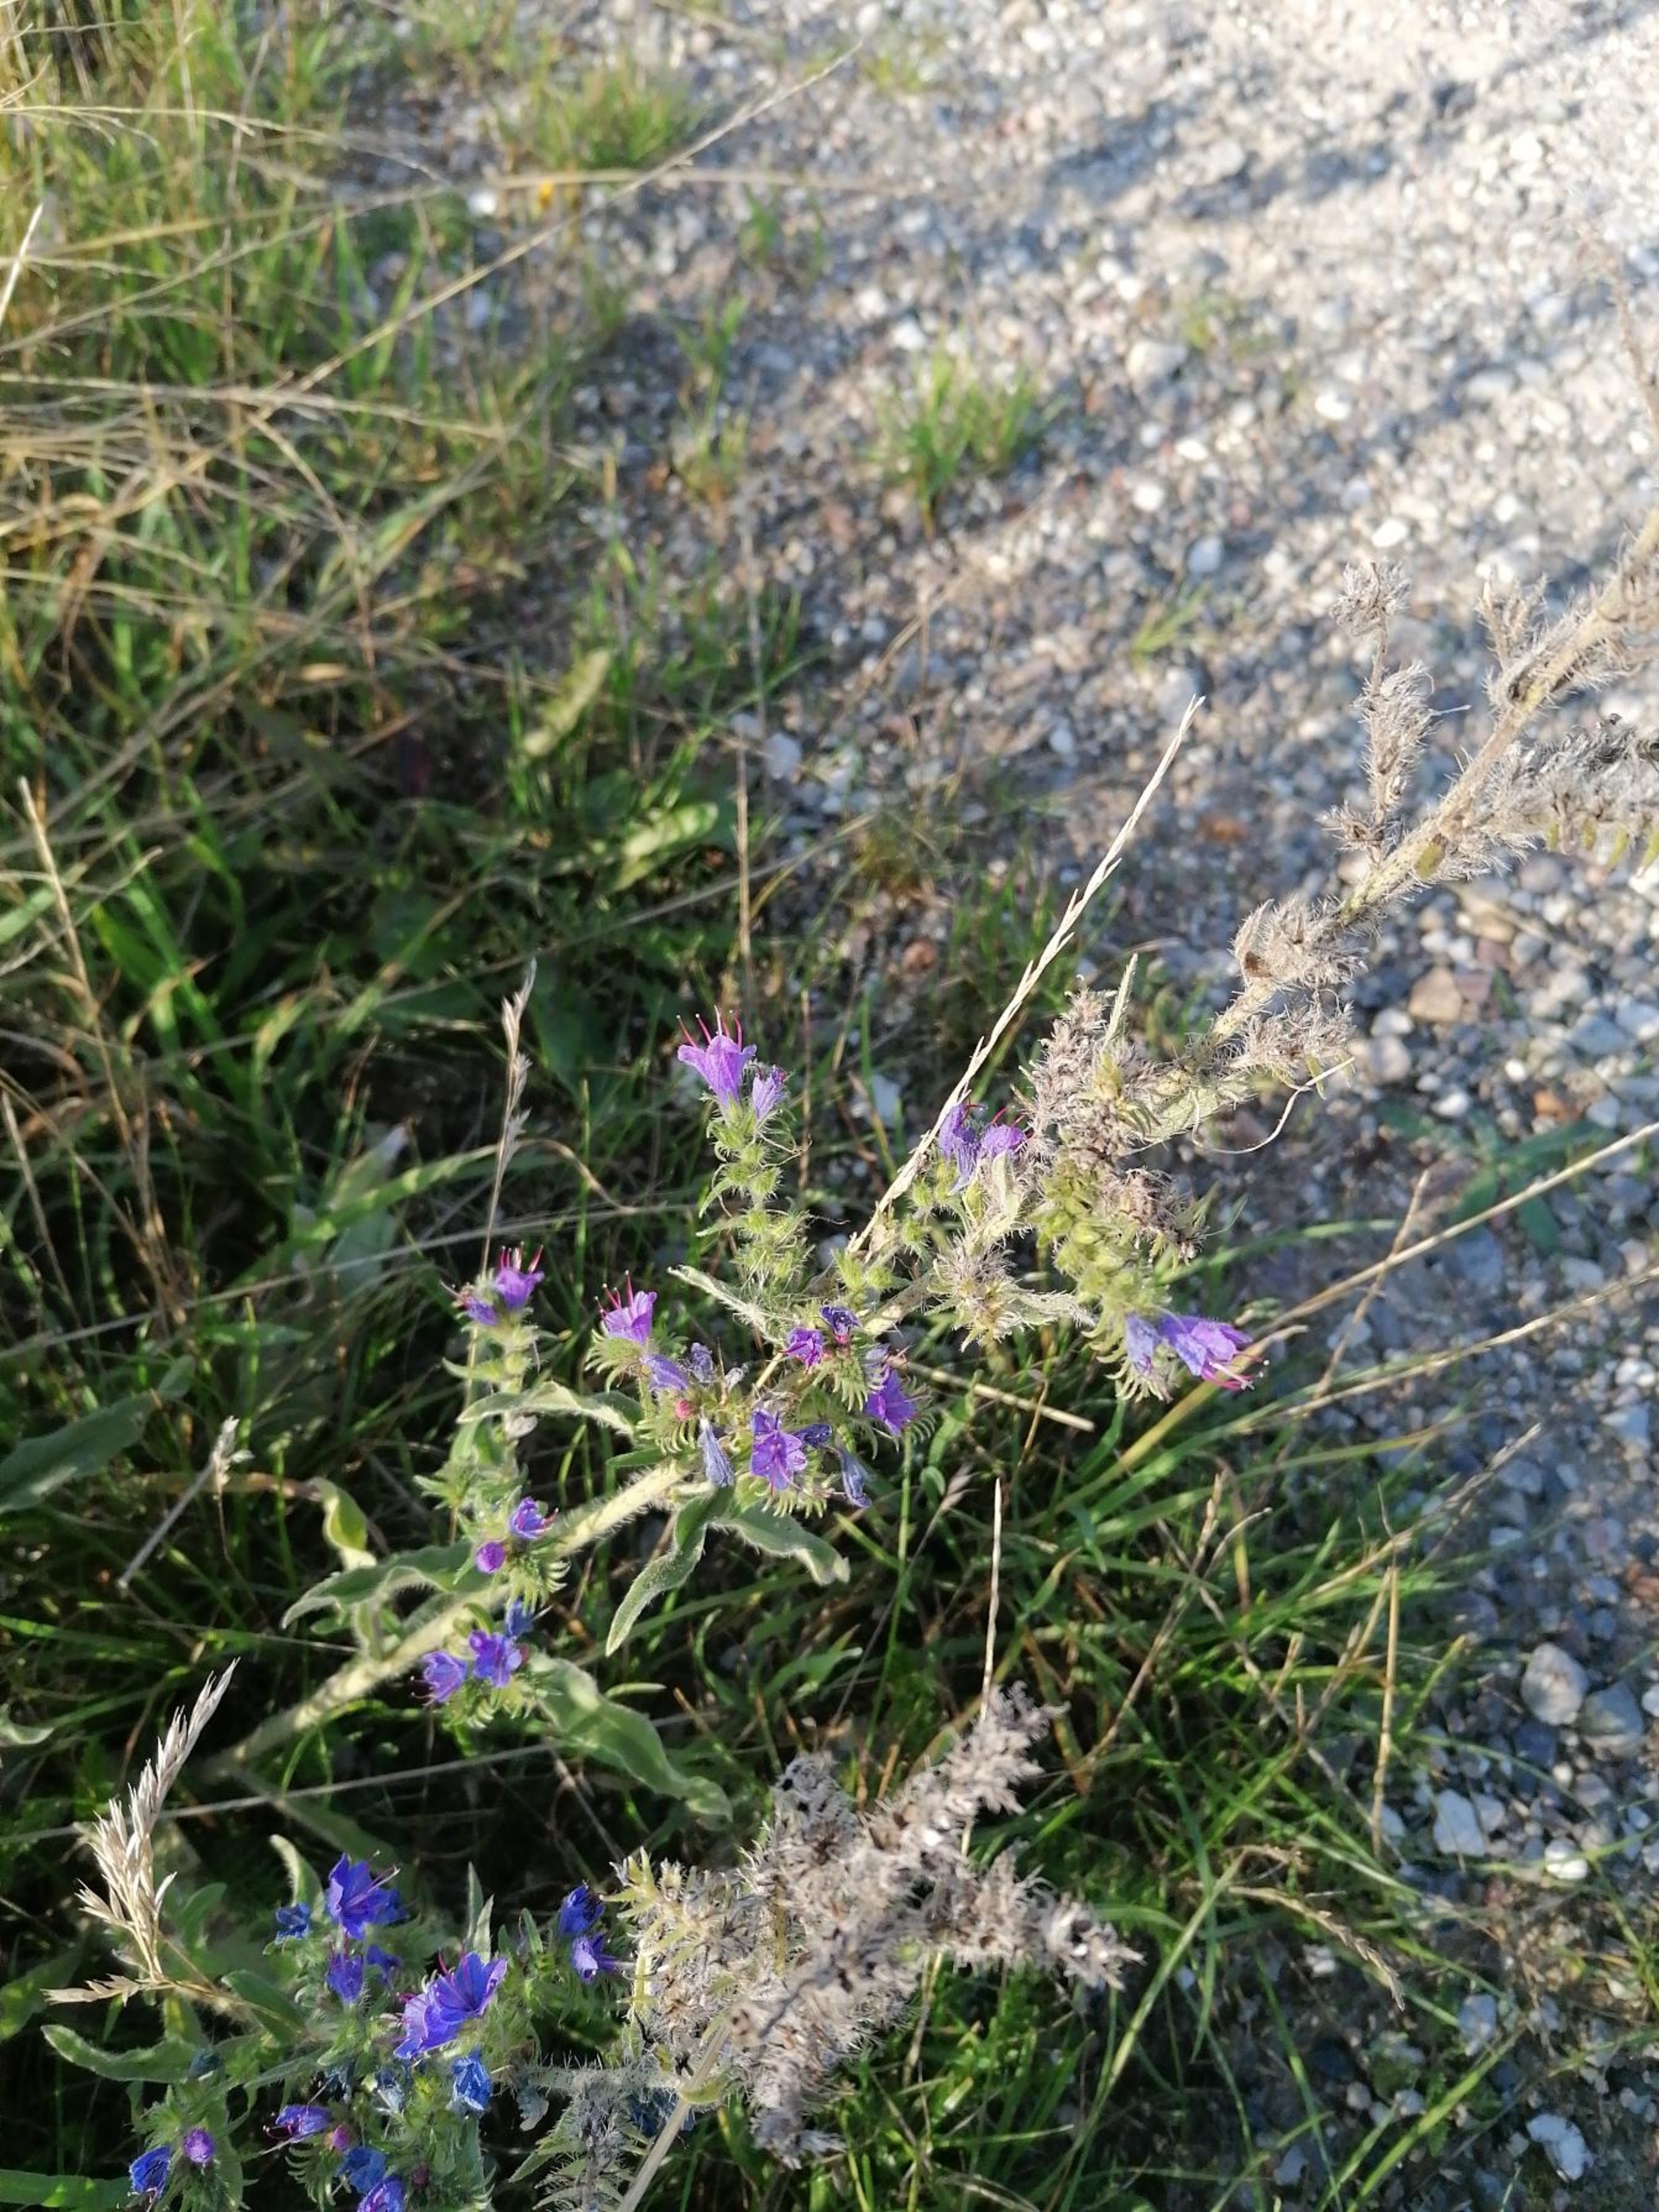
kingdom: Plantae
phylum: Tracheophyta
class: Magnoliopsida
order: Boraginales
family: Boraginaceae
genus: Echium
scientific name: Echium vulgare
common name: Slangehoved
